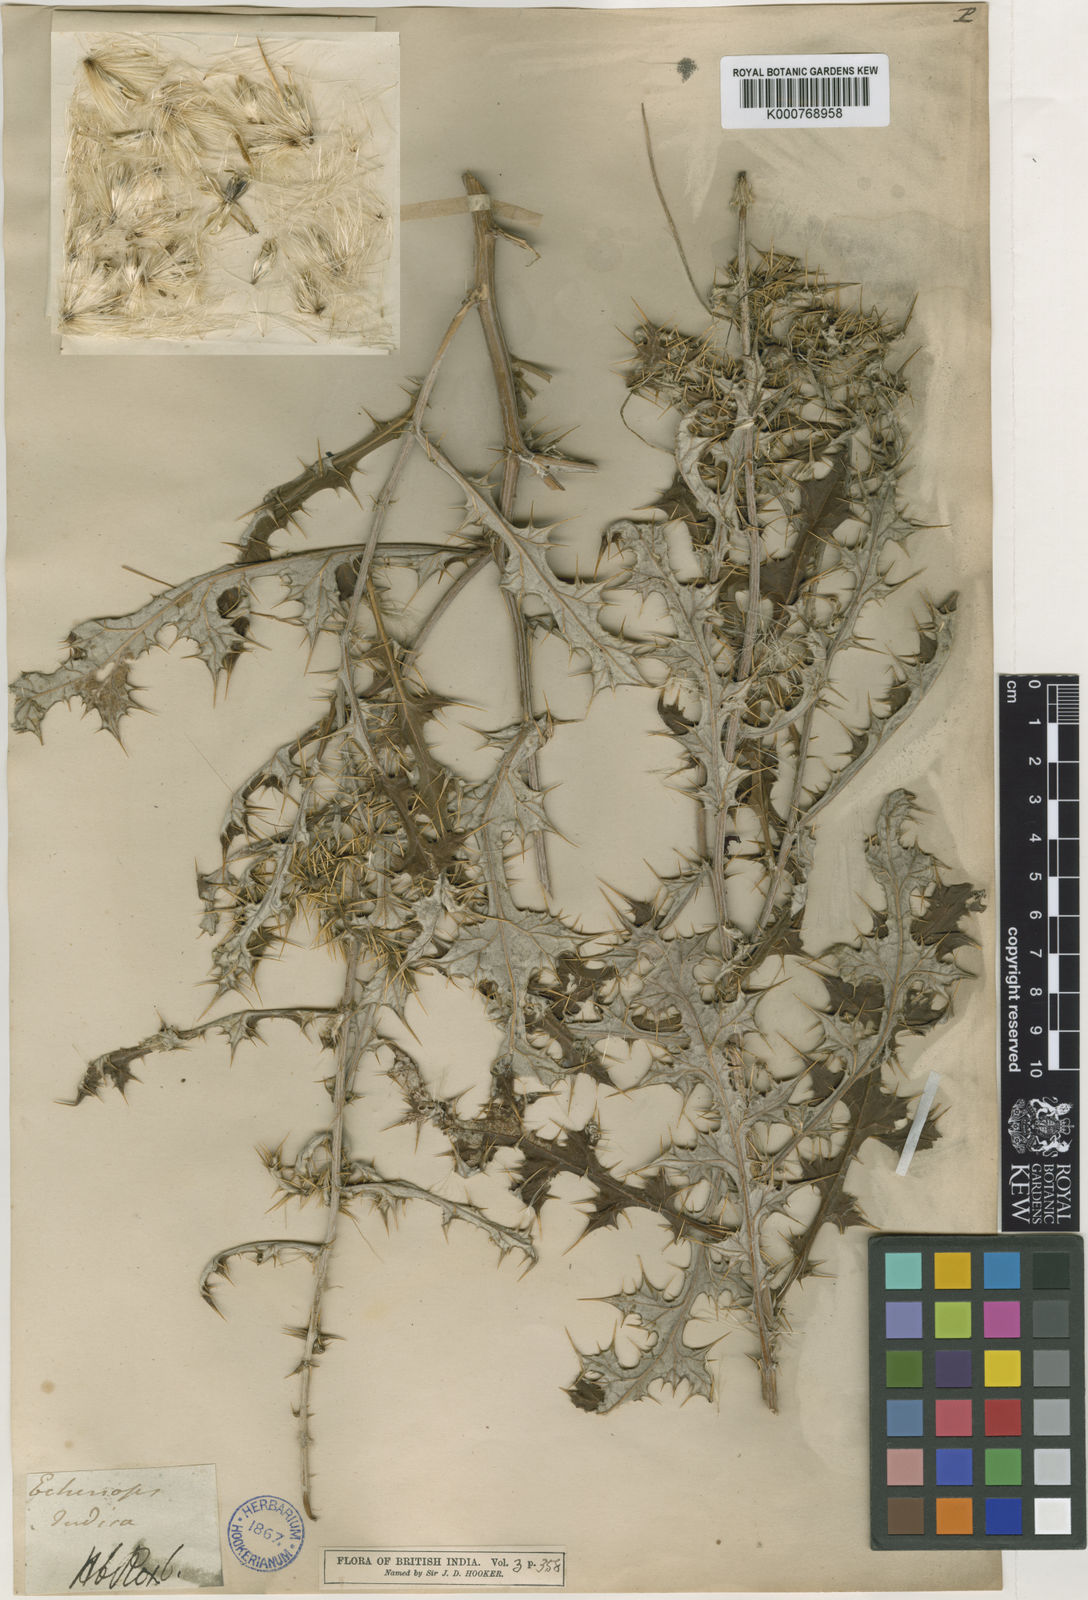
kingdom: Plantae
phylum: Tracheophyta
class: Magnoliopsida
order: Asterales
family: Asteraceae
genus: Echinops
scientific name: Echinops echinatus
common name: Indian globe thistle
